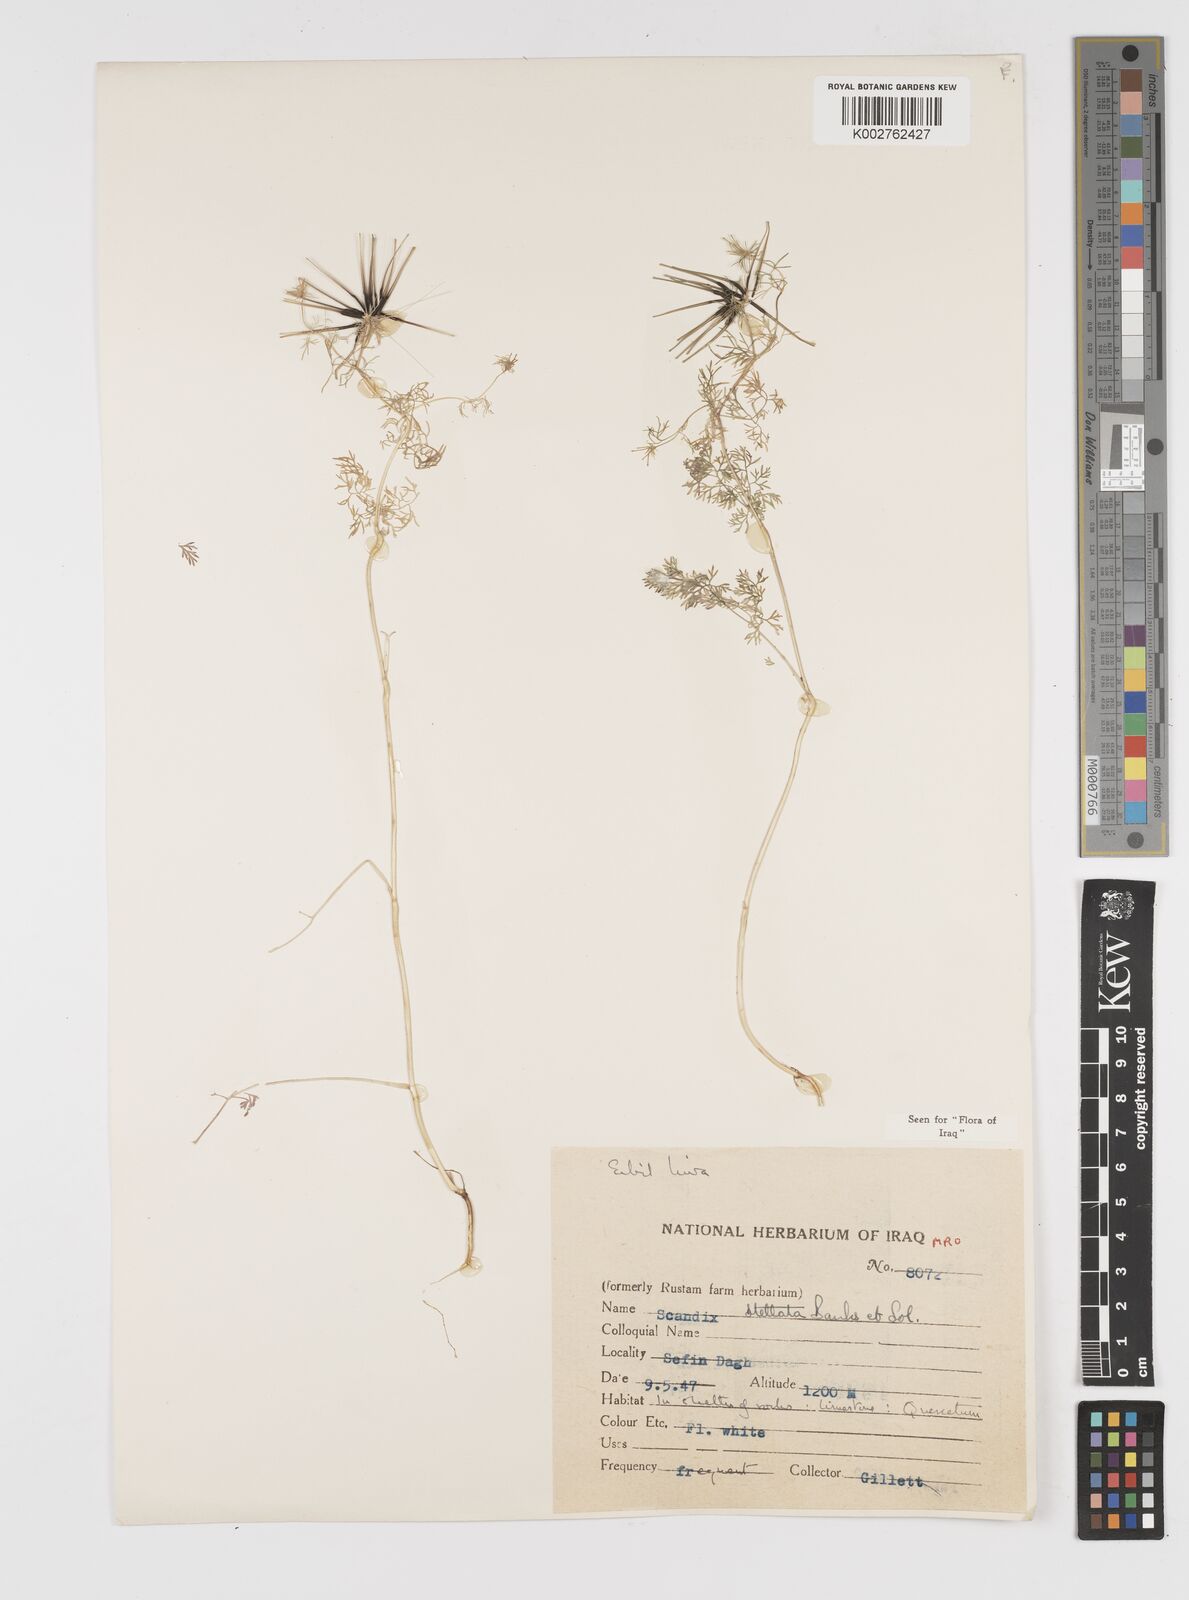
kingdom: Plantae
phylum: Tracheophyta
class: Magnoliopsida
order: Apiales
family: Apiaceae
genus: Scandix
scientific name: Scandix stellata
